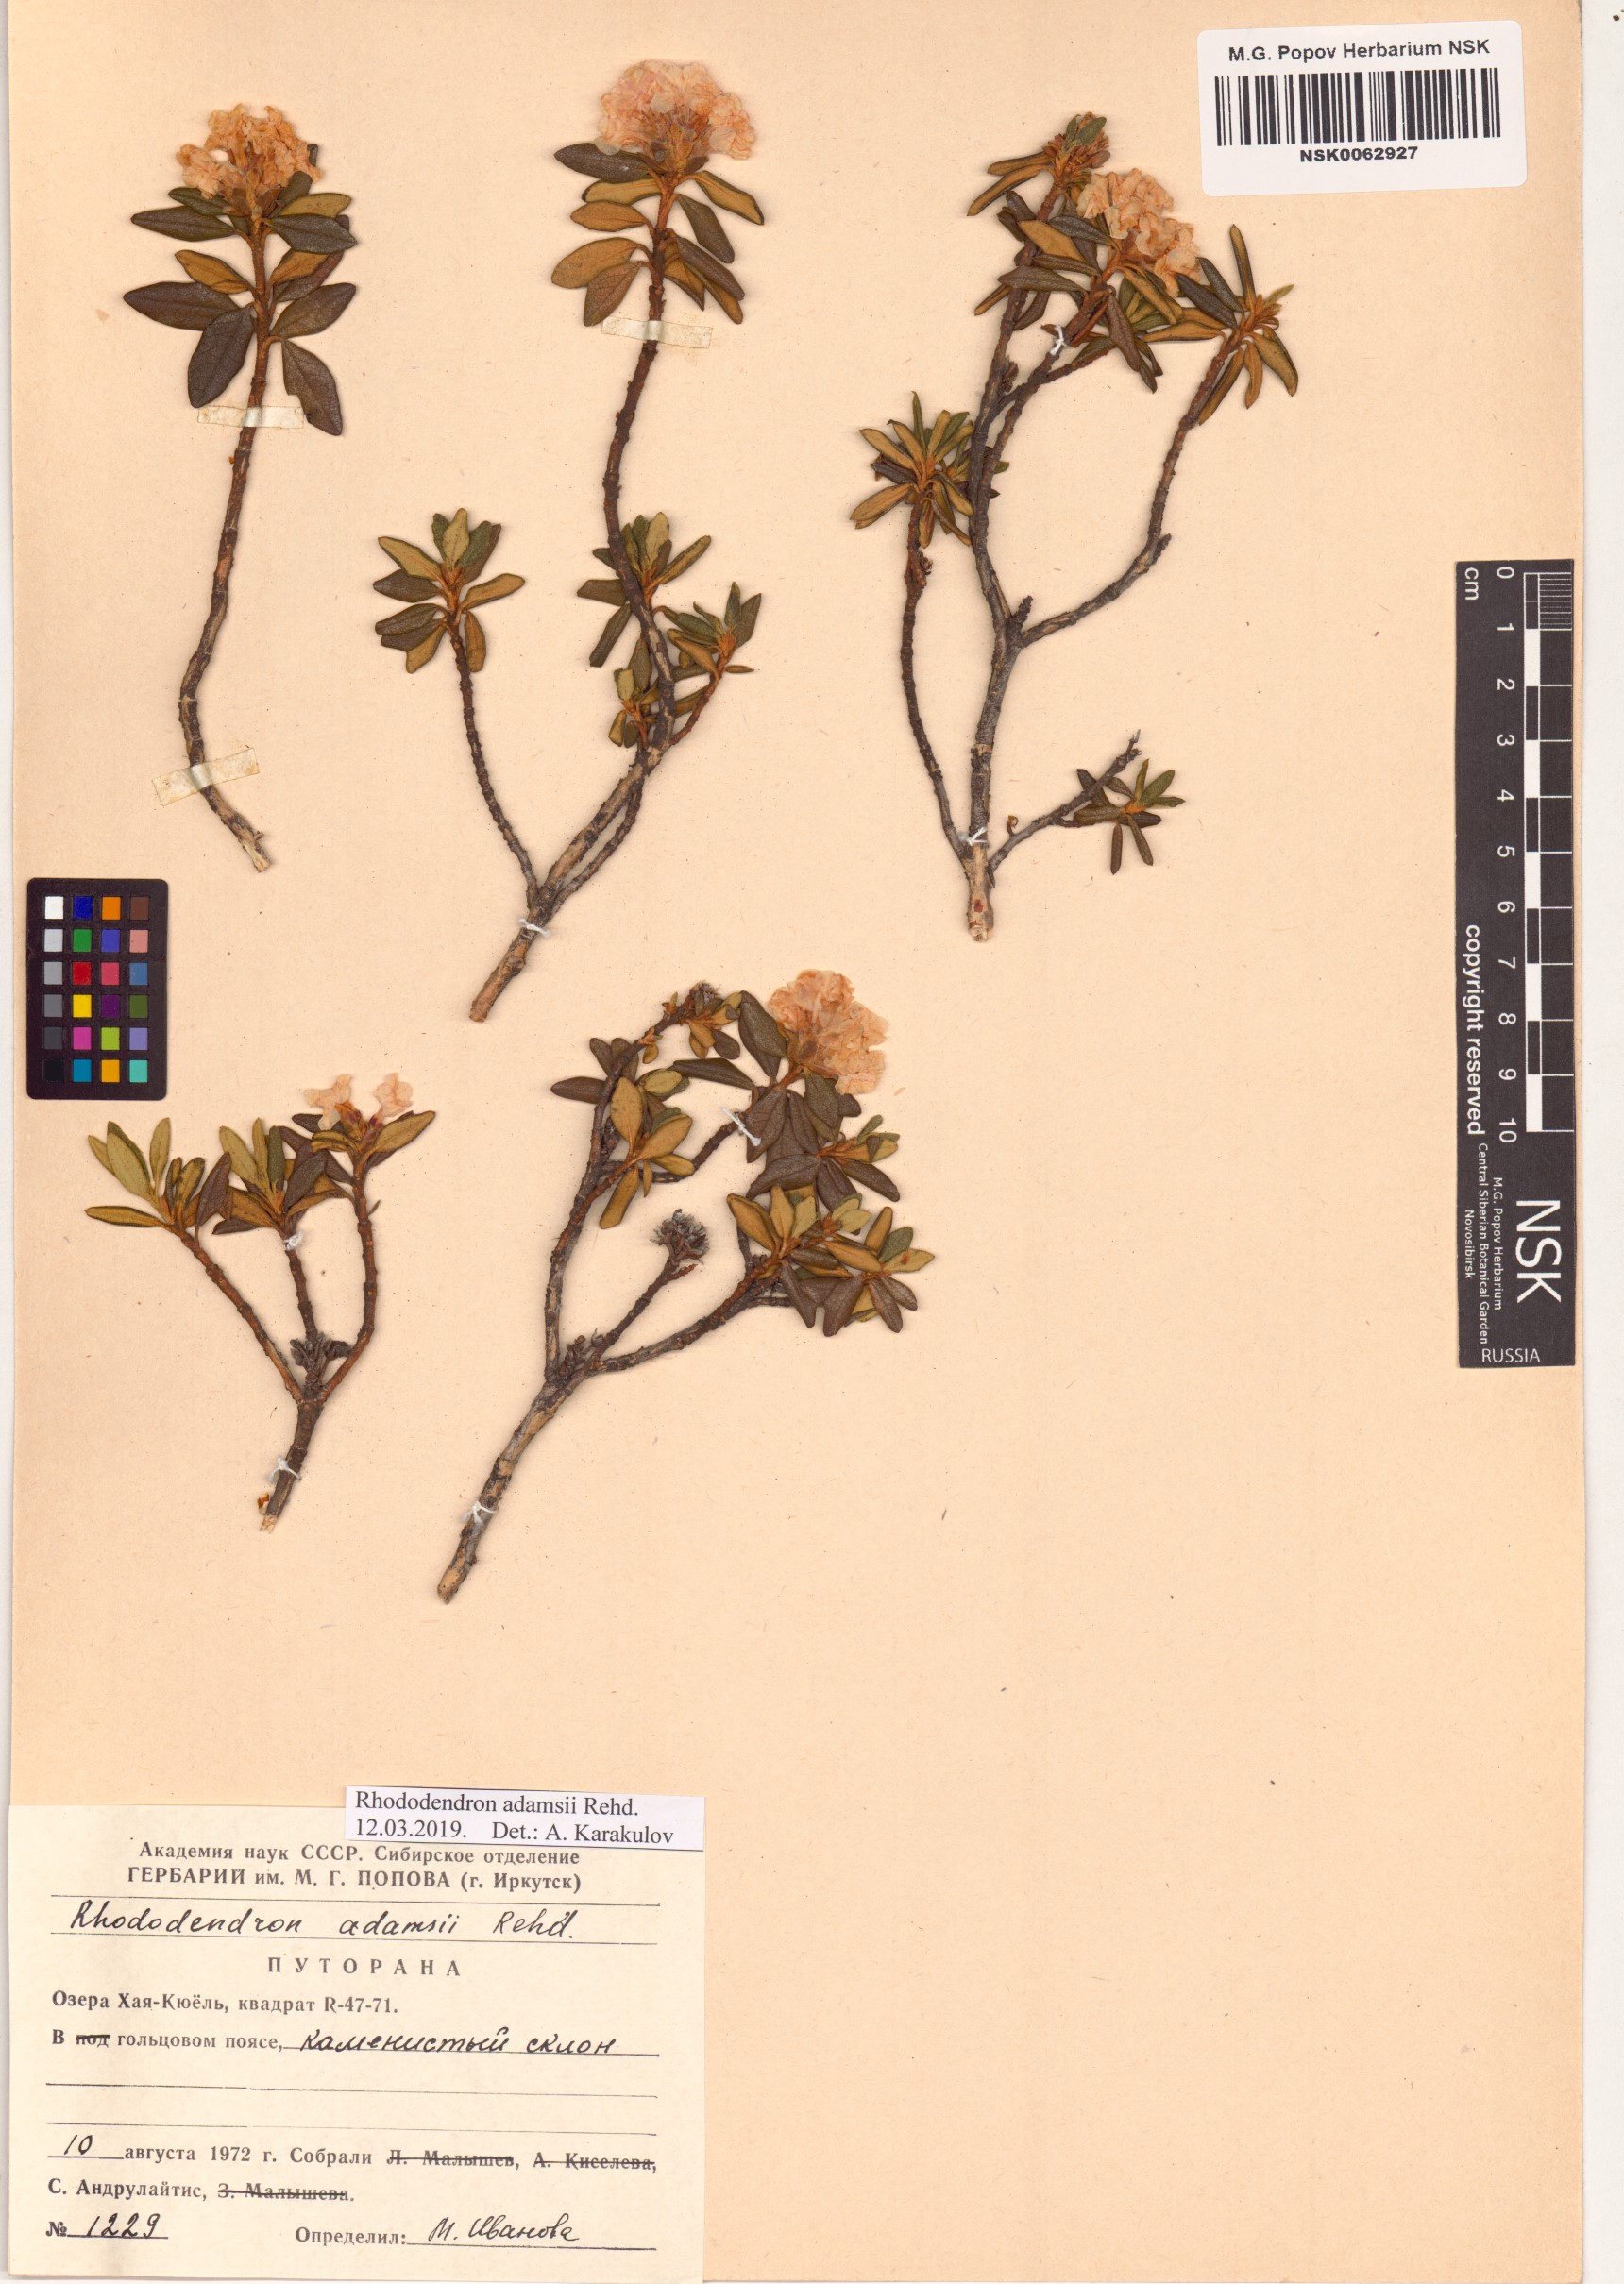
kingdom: Plantae
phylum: Tracheophyta
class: Magnoliopsida
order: Ericales
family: Ericaceae
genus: Rhododendron
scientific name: Rhododendron adamsii
